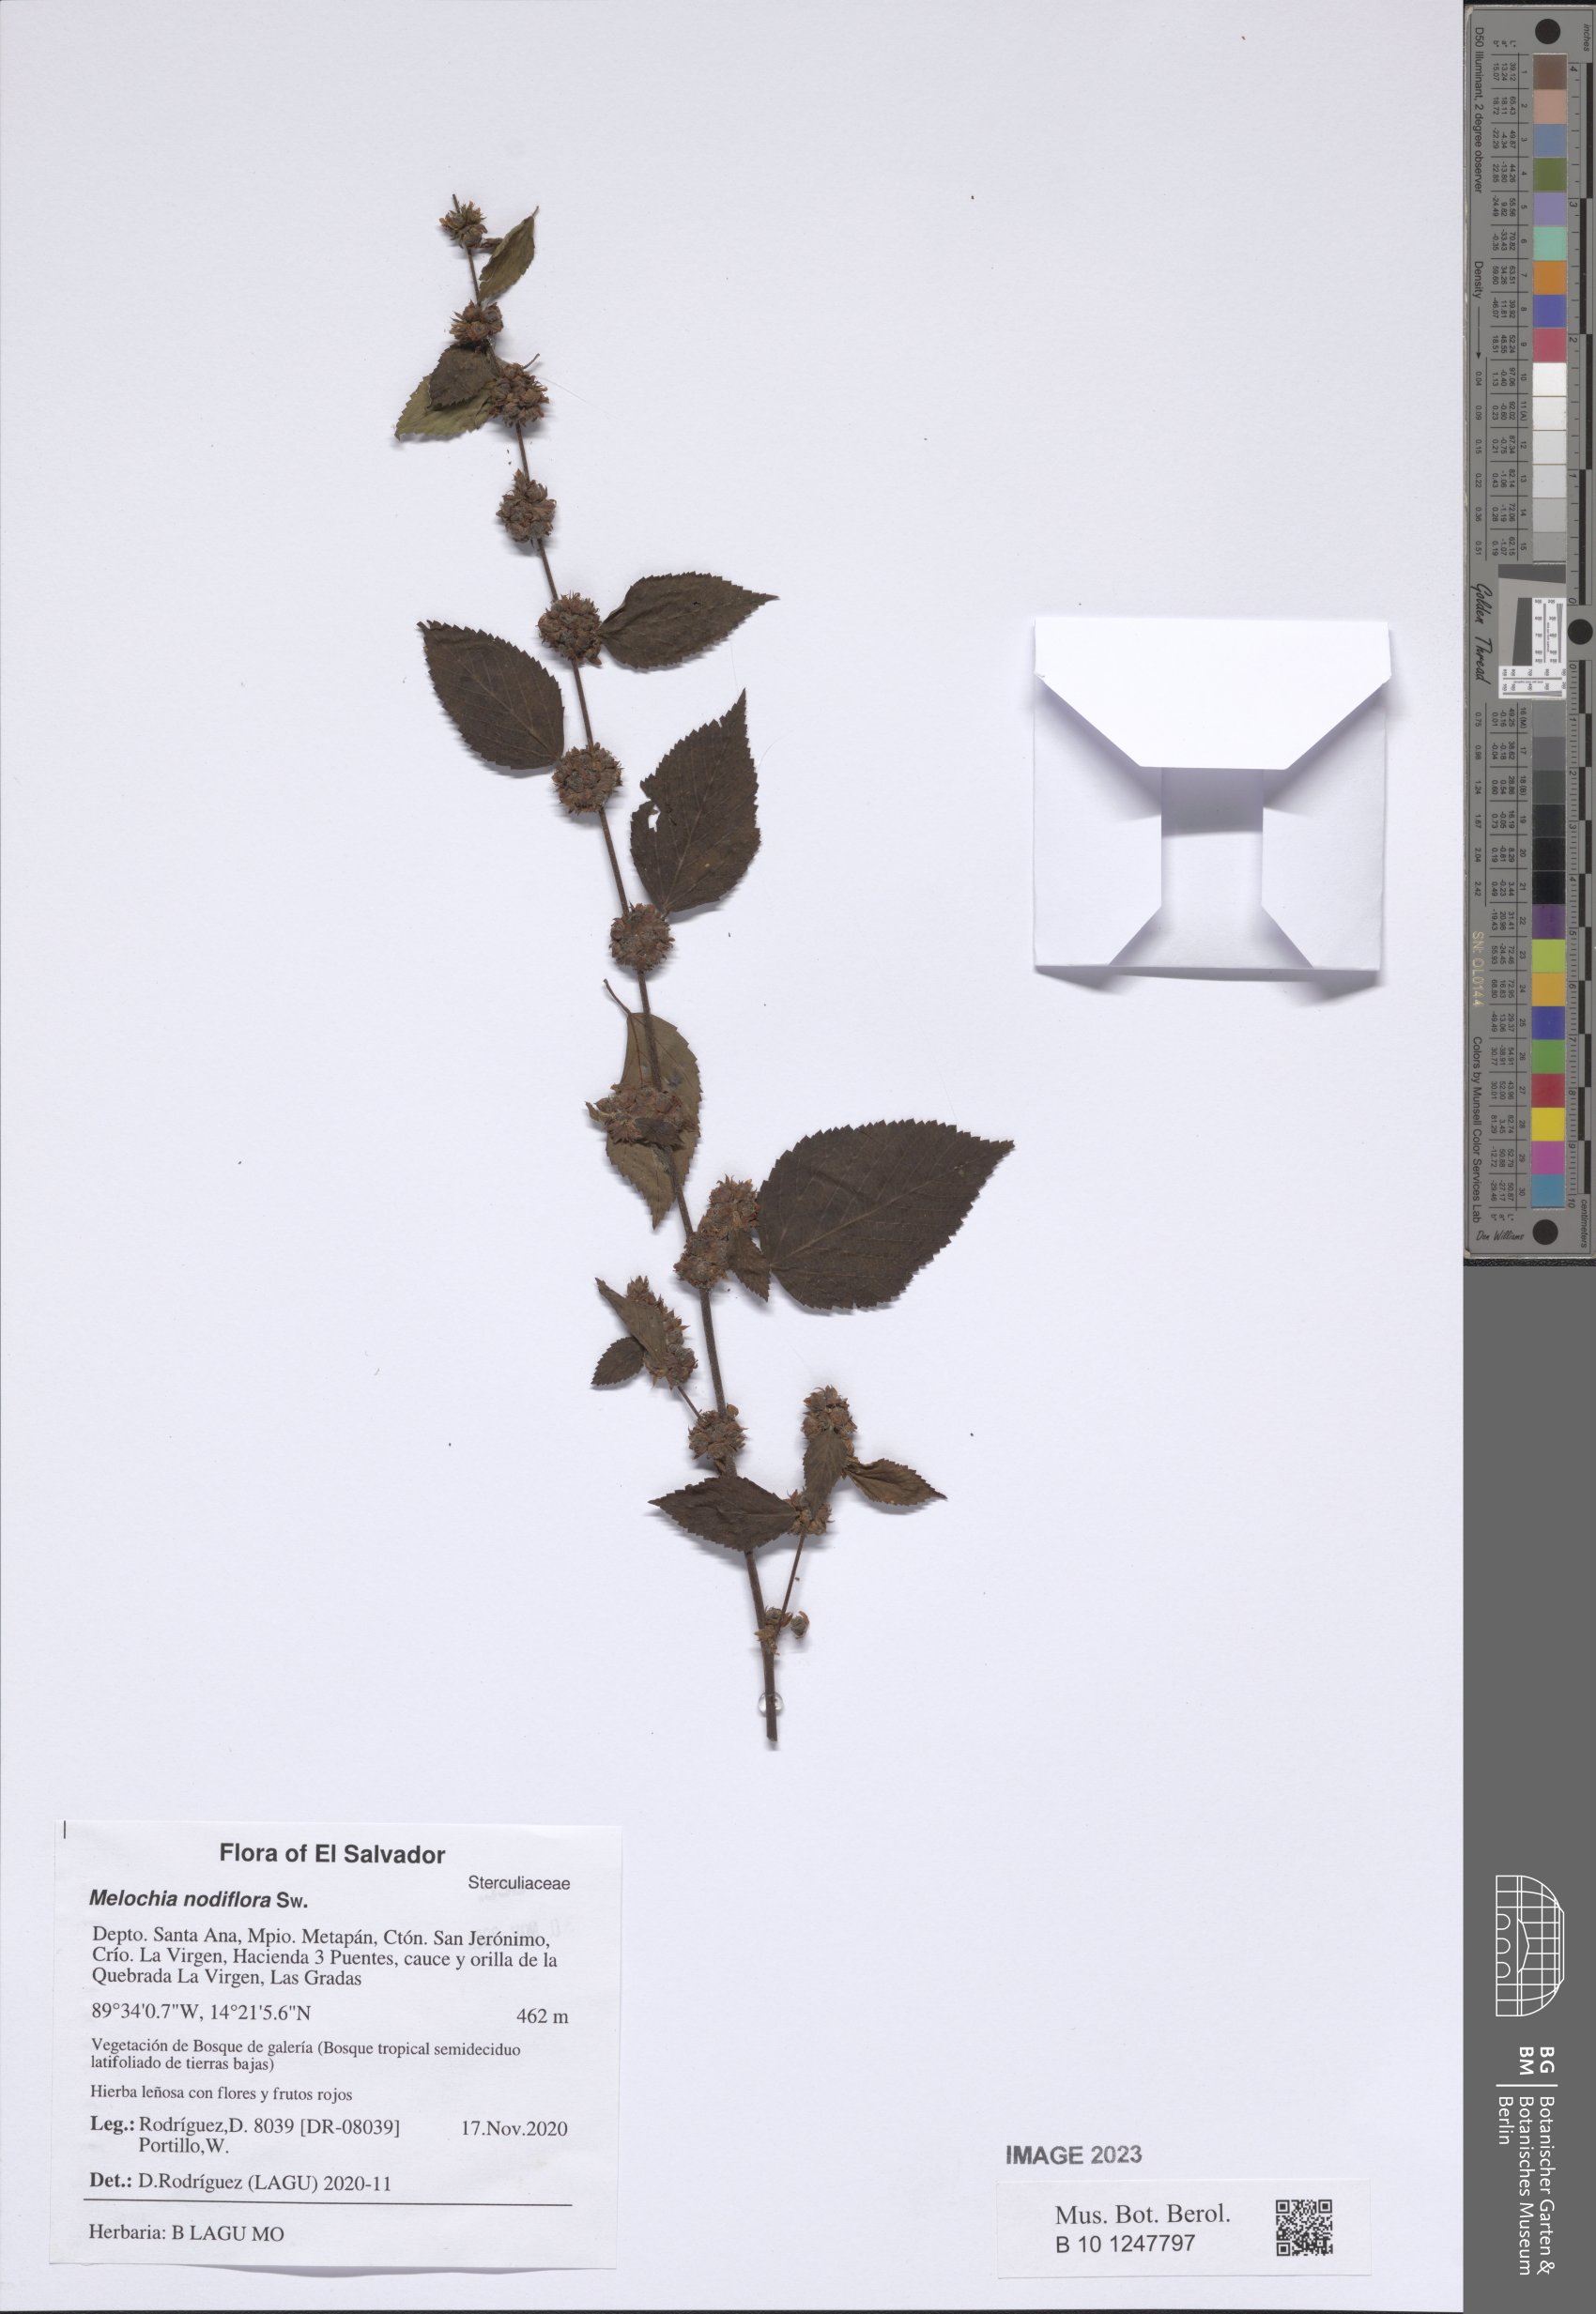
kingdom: Plantae
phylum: Tracheophyta
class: Magnoliopsida
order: Malvales
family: Malvaceae
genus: Melochia
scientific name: Melochia nodiflora
